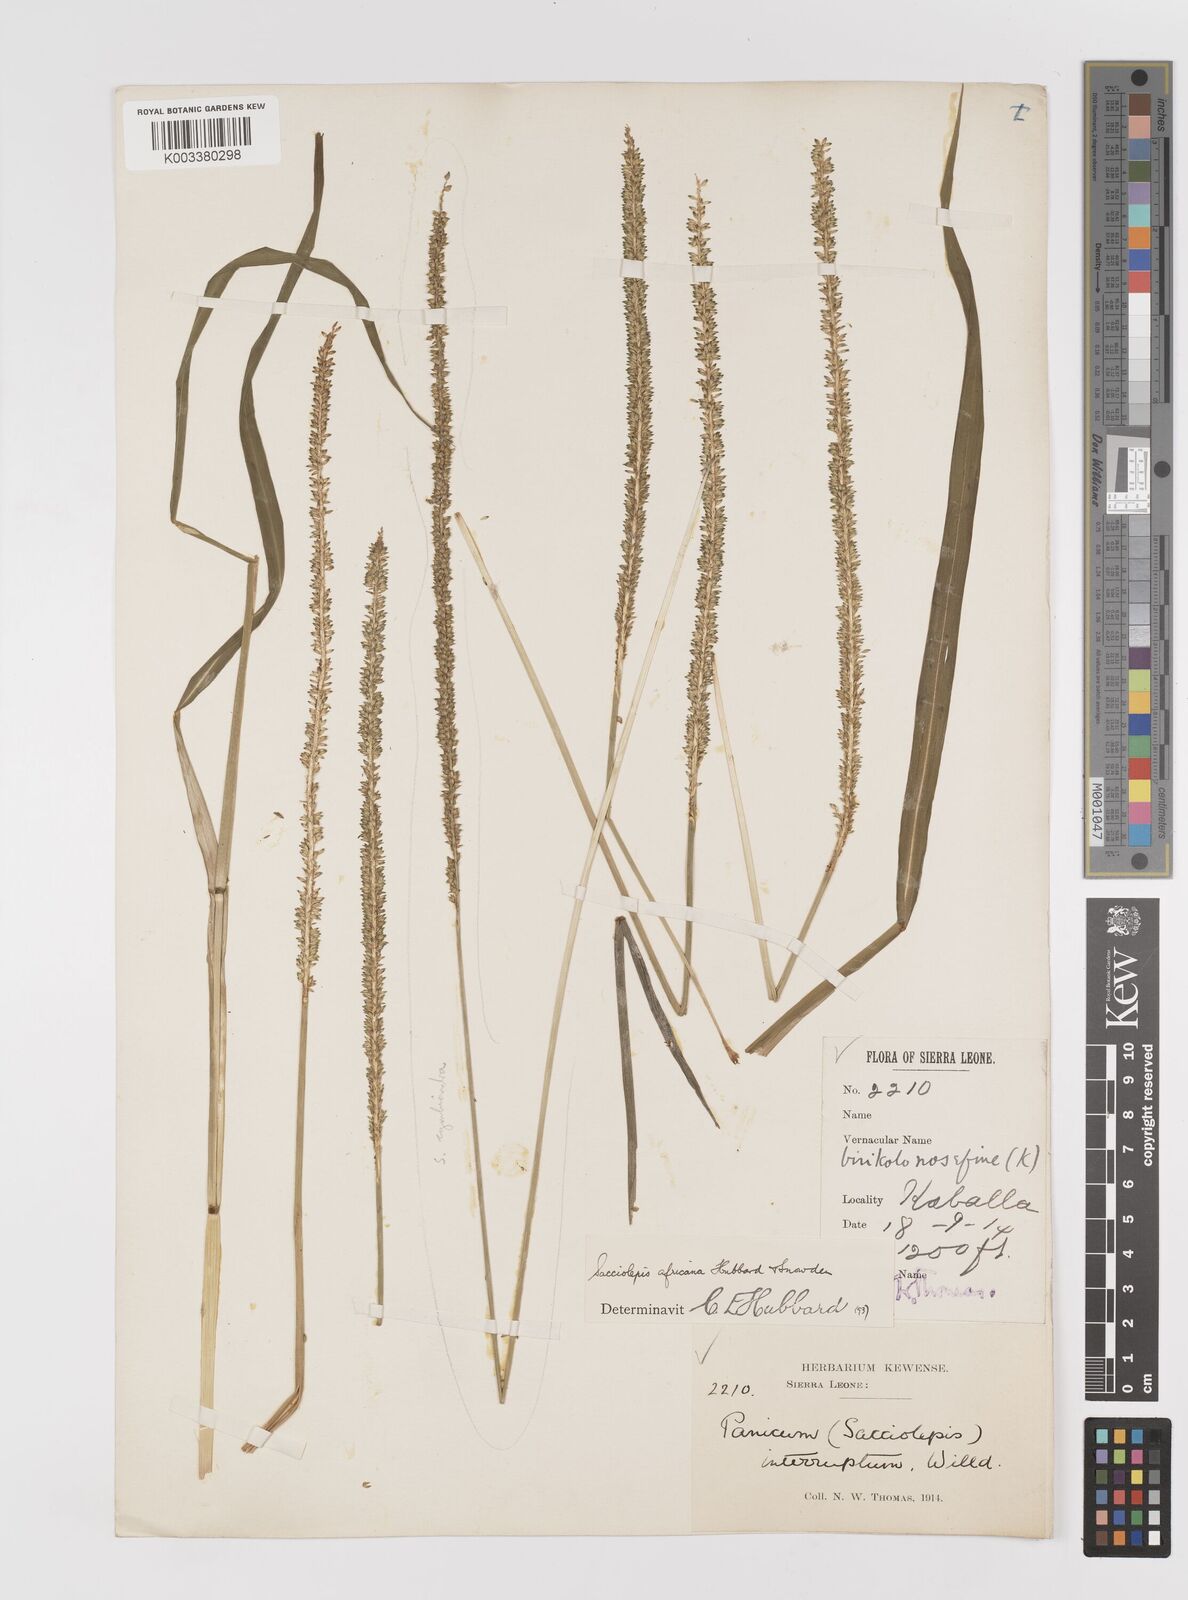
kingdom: Plantae
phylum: Tracheophyta
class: Liliopsida
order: Poales
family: Poaceae
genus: Sacciolepis
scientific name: Sacciolepis africana
